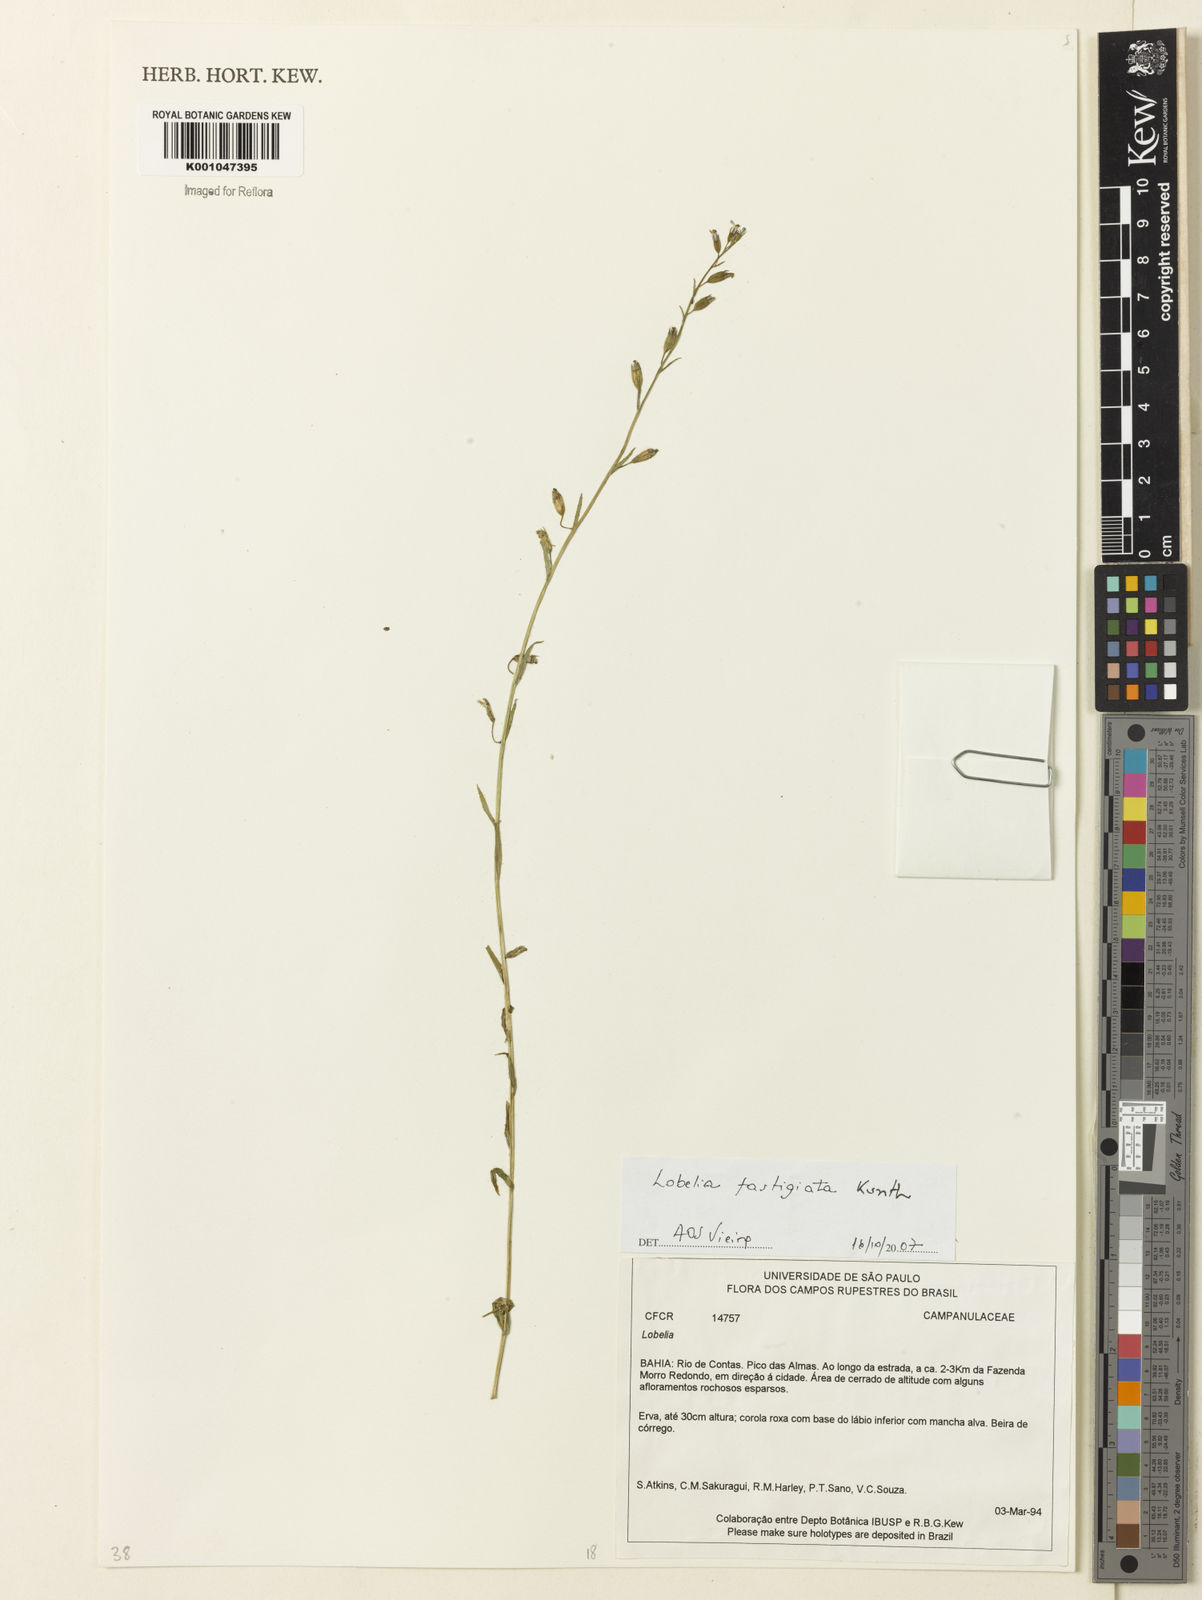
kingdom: Plantae
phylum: Tracheophyta
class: Magnoliopsida
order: Asterales
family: Campanulaceae
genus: Lobelia
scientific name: Lobelia fastigiata
